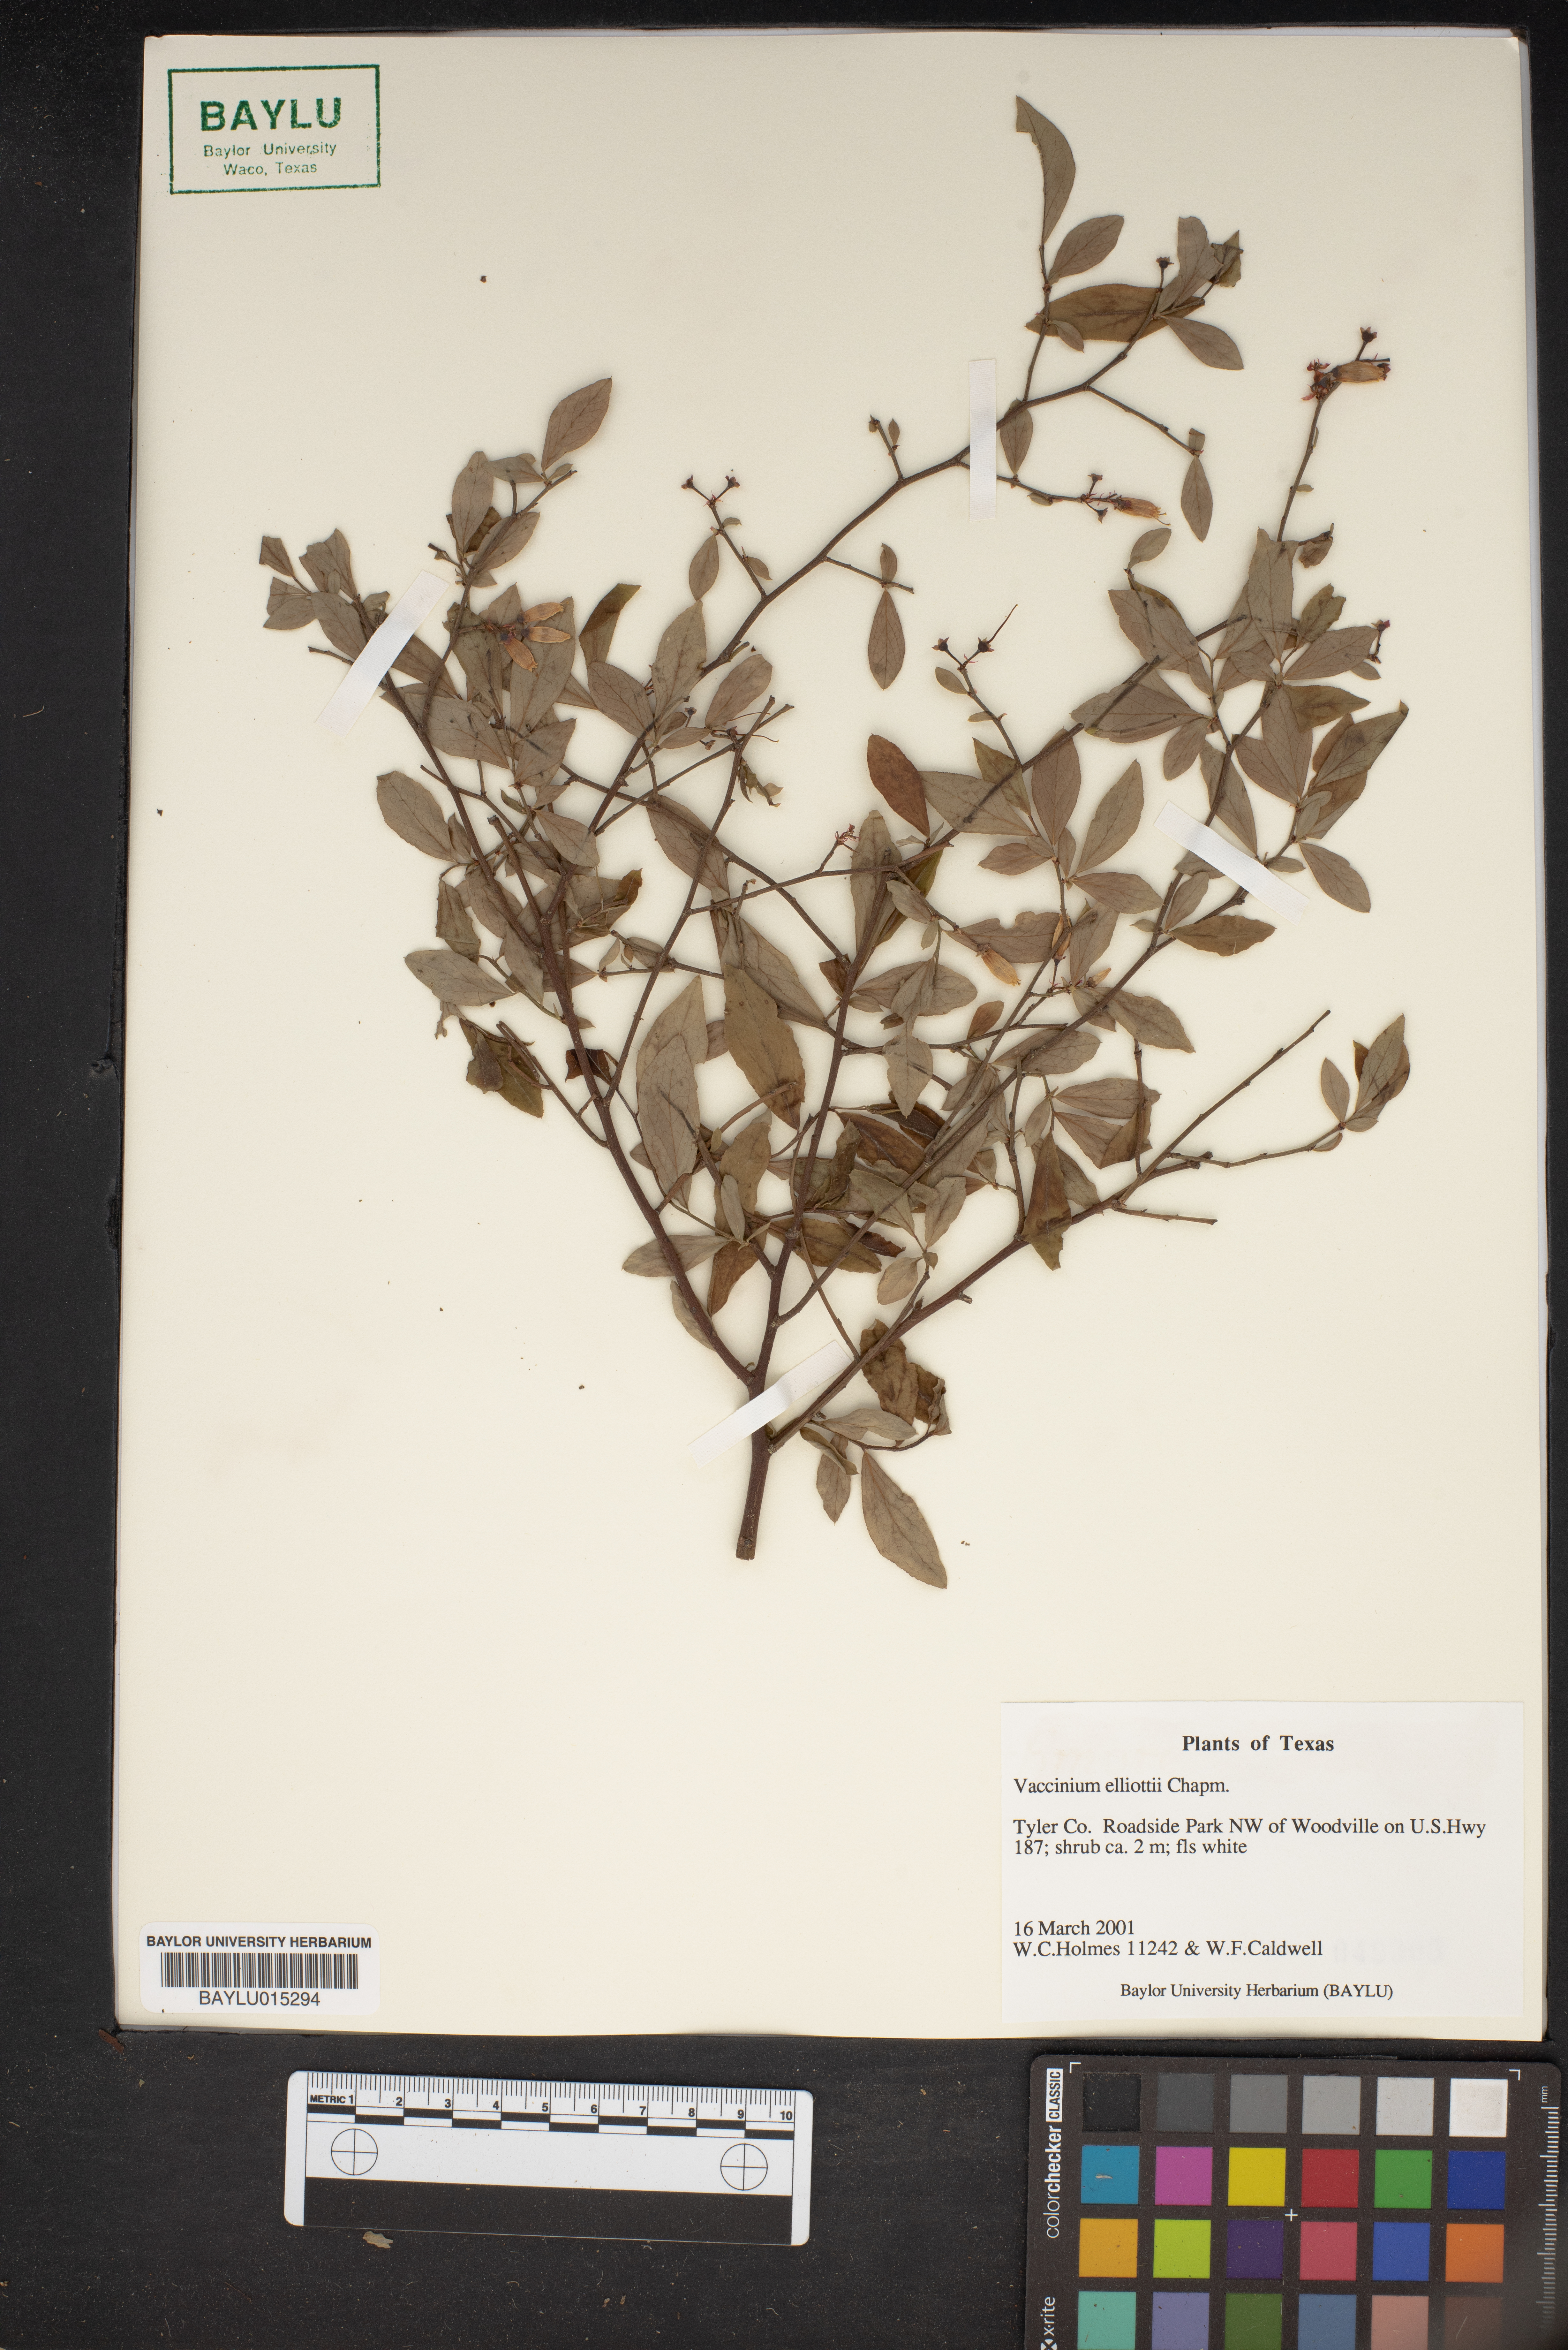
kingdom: Plantae
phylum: Tracheophyta
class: Magnoliopsida
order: Ericales
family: Ericaceae
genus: Vaccinium
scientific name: Vaccinium corymbosum
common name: Blueberry
